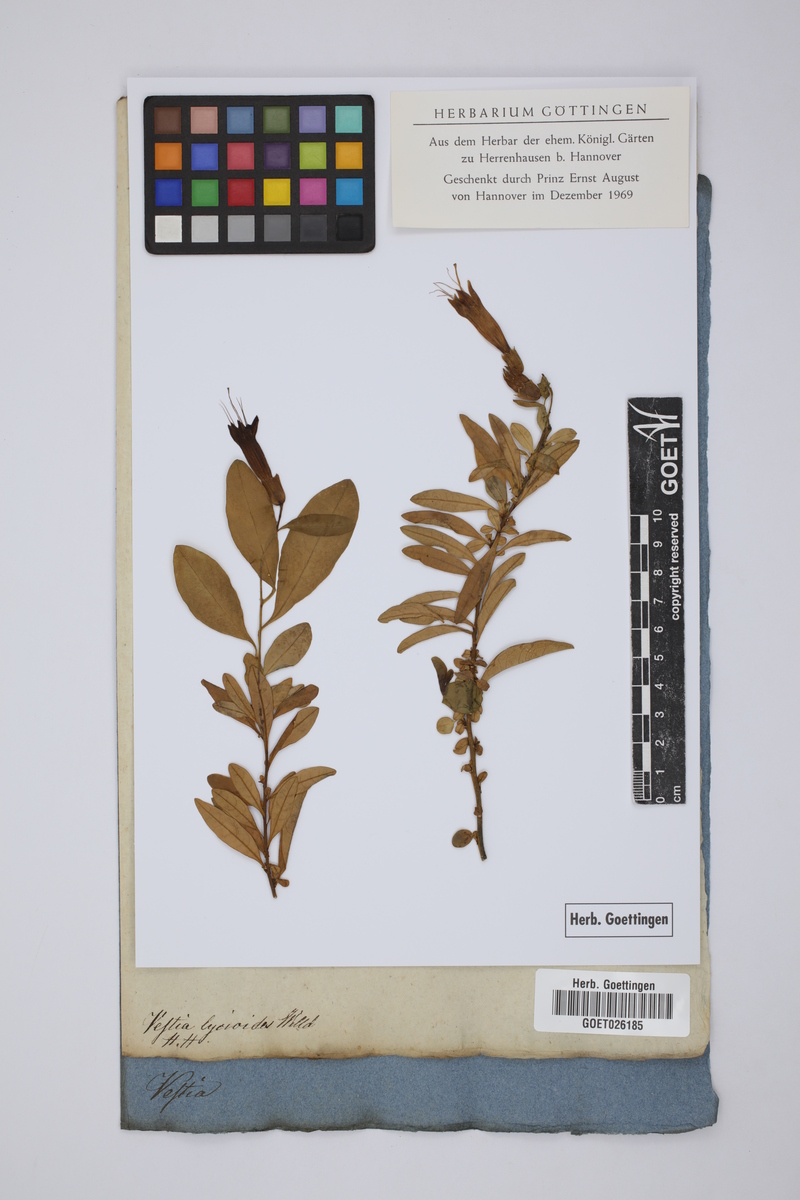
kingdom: Plantae
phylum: Tracheophyta
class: Magnoliopsida
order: Solanales
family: Solanaceae
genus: Vestia
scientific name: Vestia foetida
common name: Huevil
